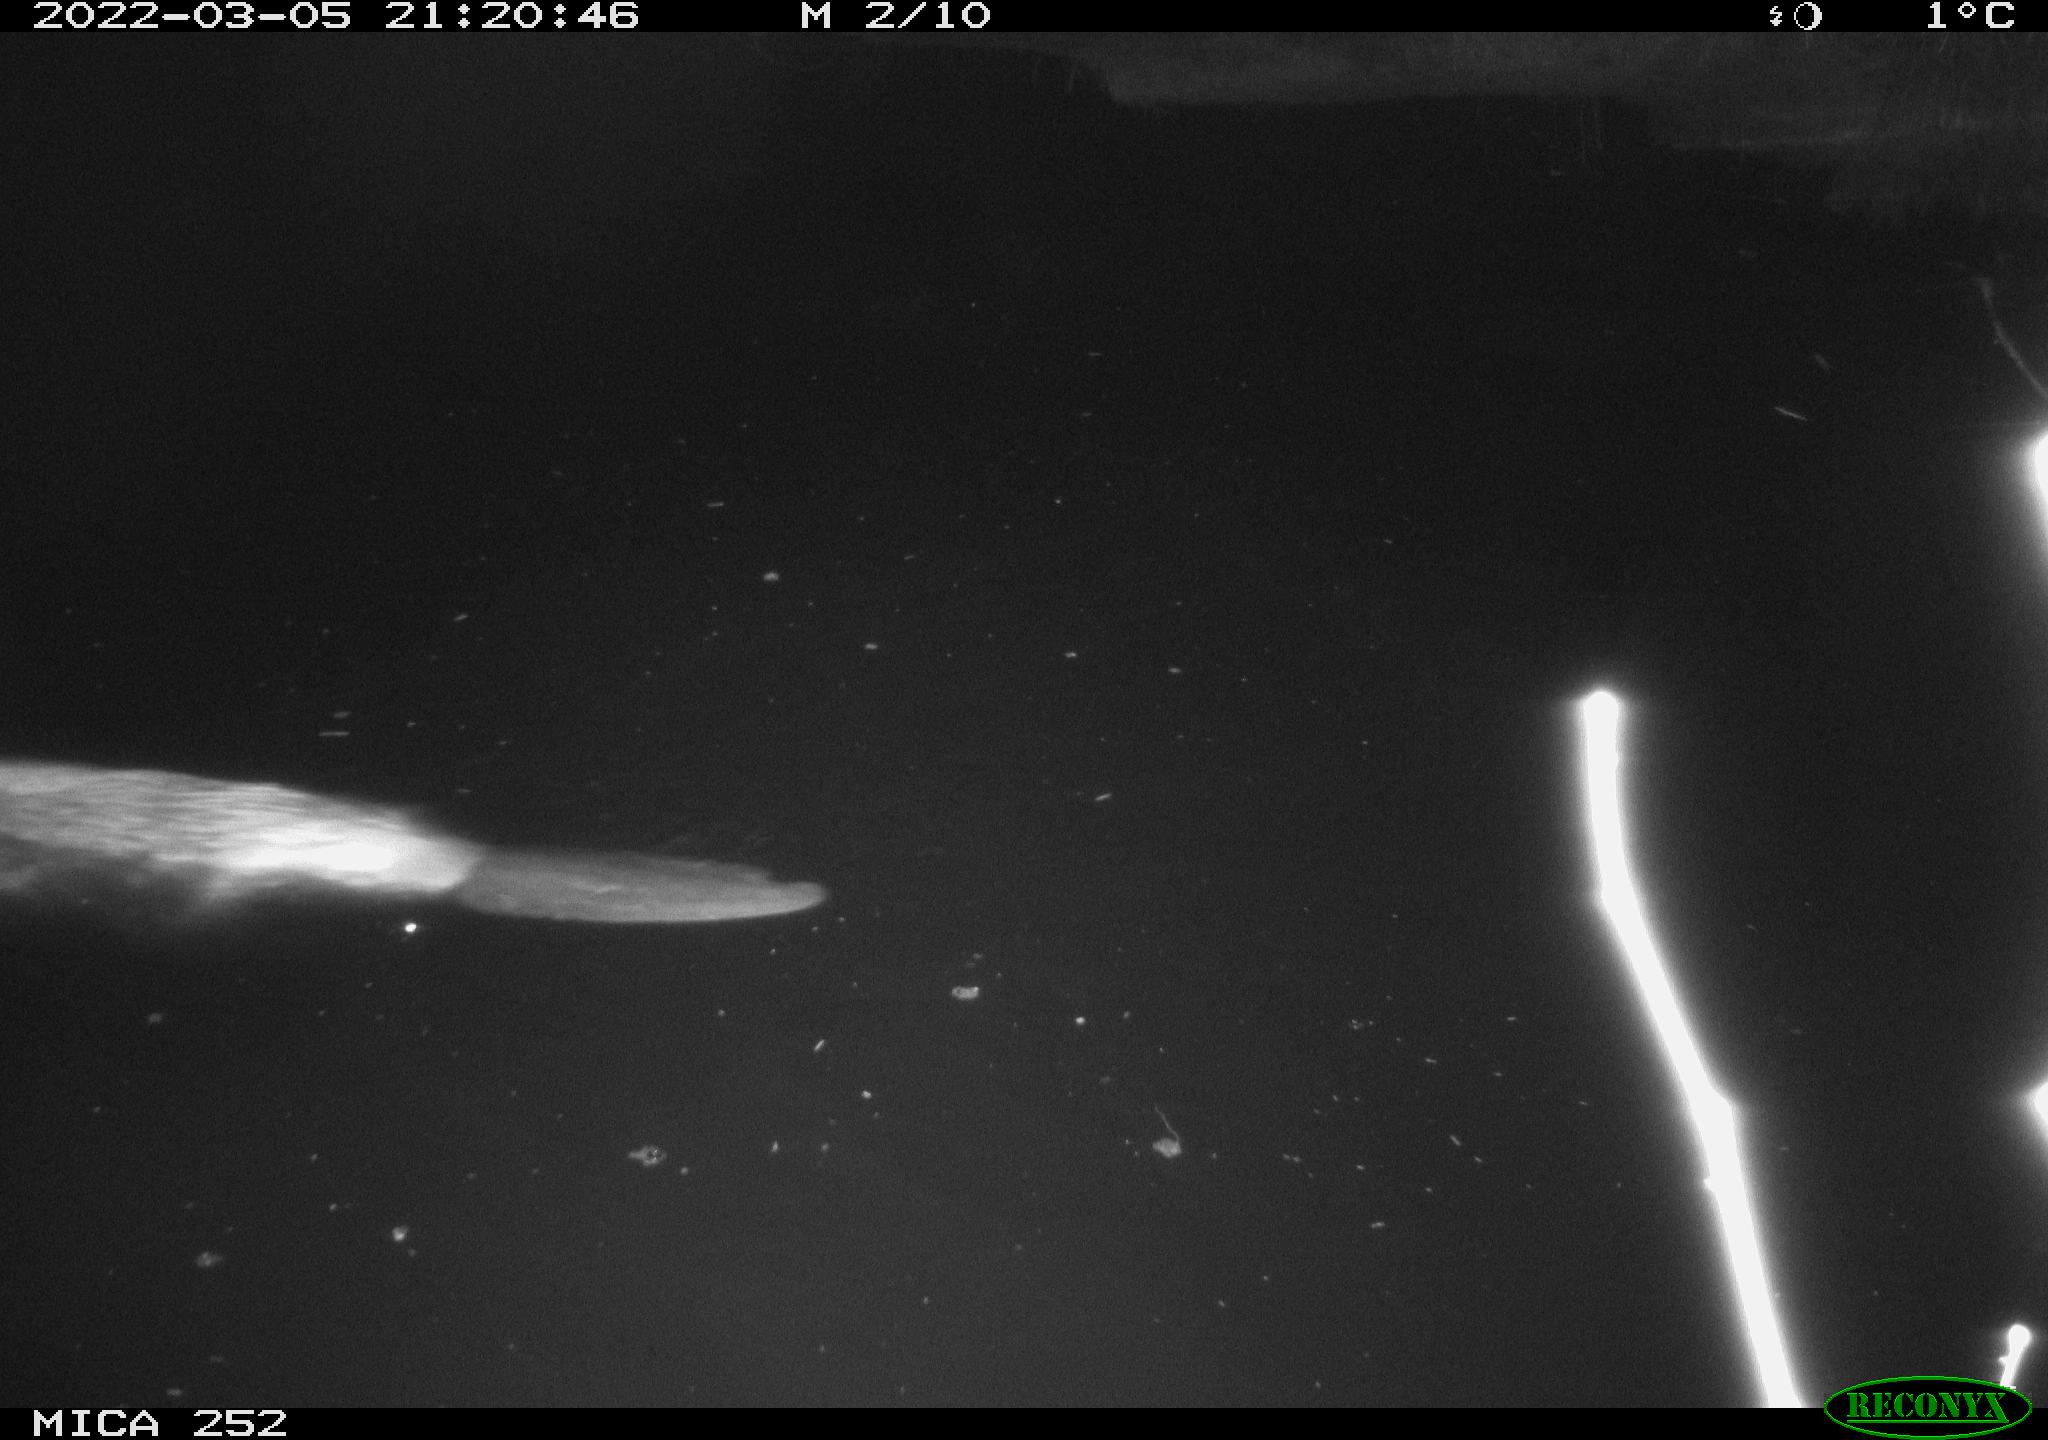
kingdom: Animalia
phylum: Chordata
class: Mammalia
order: Rodentia
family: Castoridae
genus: Castor
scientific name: Castor fiber
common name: Eurasian beaver
